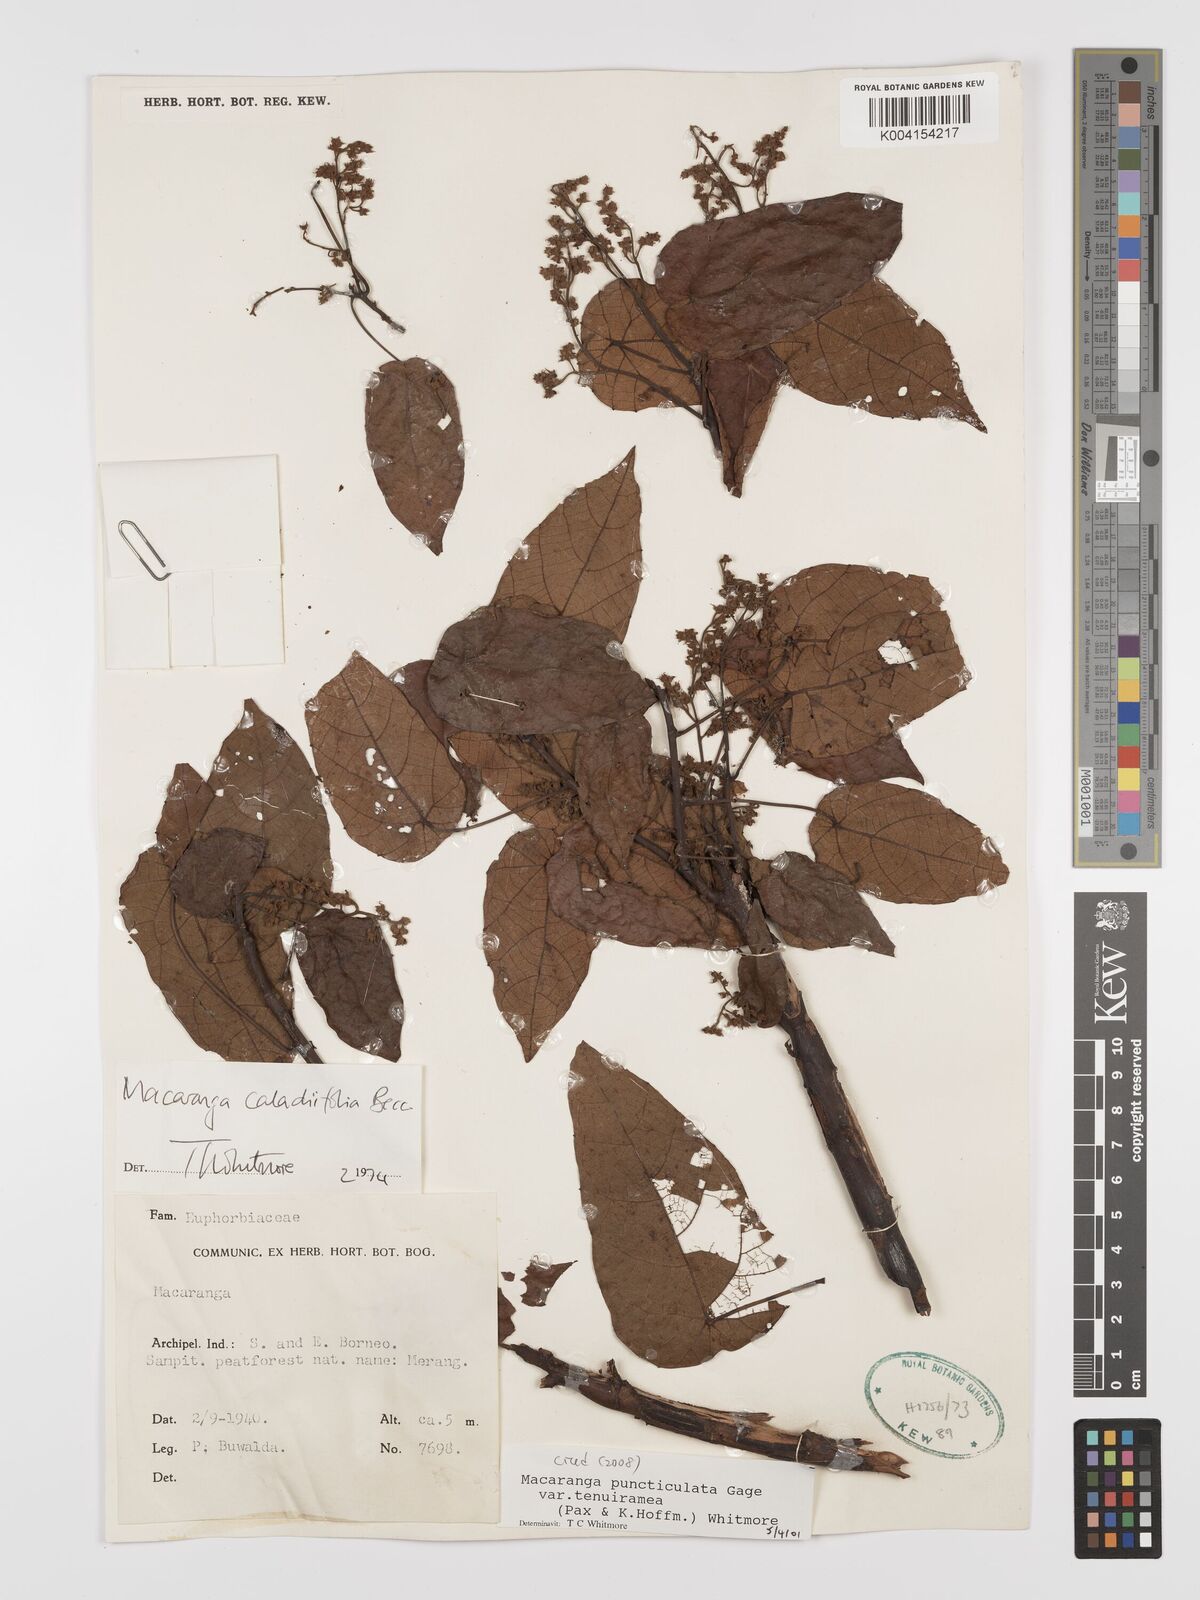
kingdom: Plantae
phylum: Tracheophyta
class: Magnoliopsida
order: Malpighiales
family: Euphorbiaceae
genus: Macaranga
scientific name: Macaranga puncticulata
